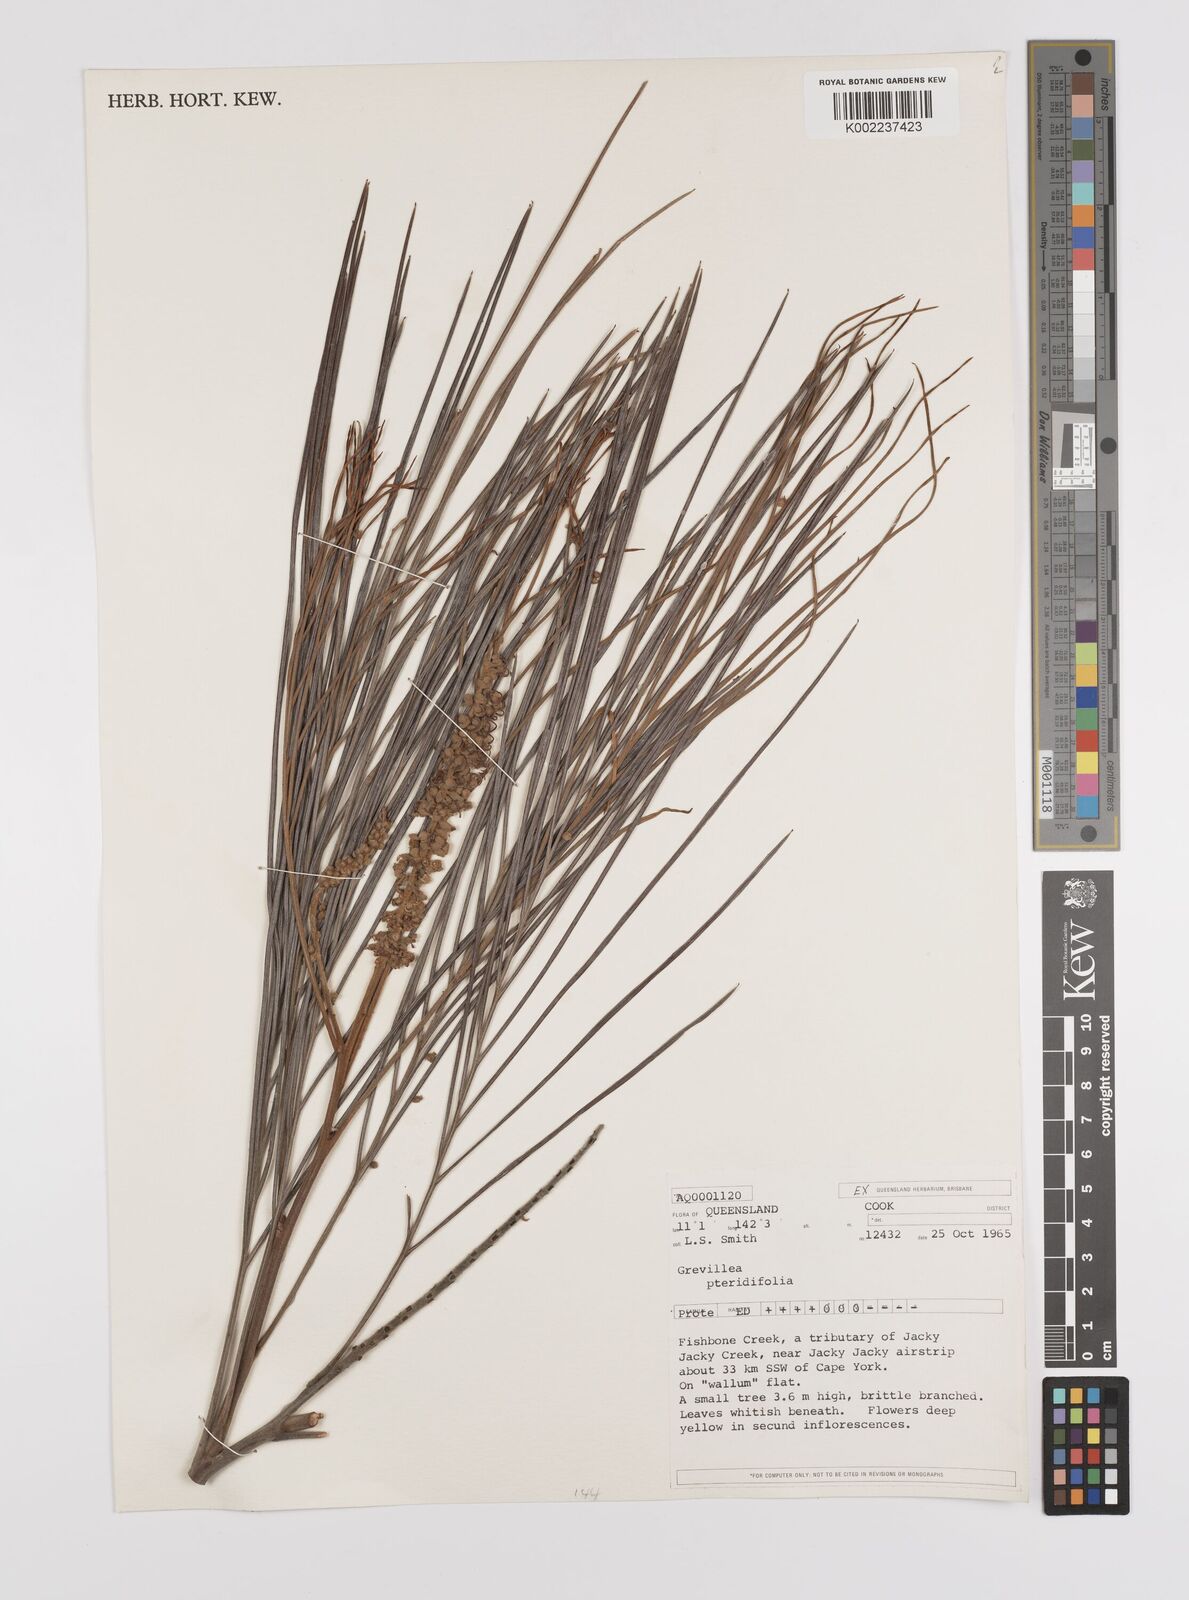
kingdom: Plantae
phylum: Tracheophyta
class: Magnoliopsida
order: Proteales
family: Proteaceae
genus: Grevillea
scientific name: Grevillea pteridifolia
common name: Golden grevillea
